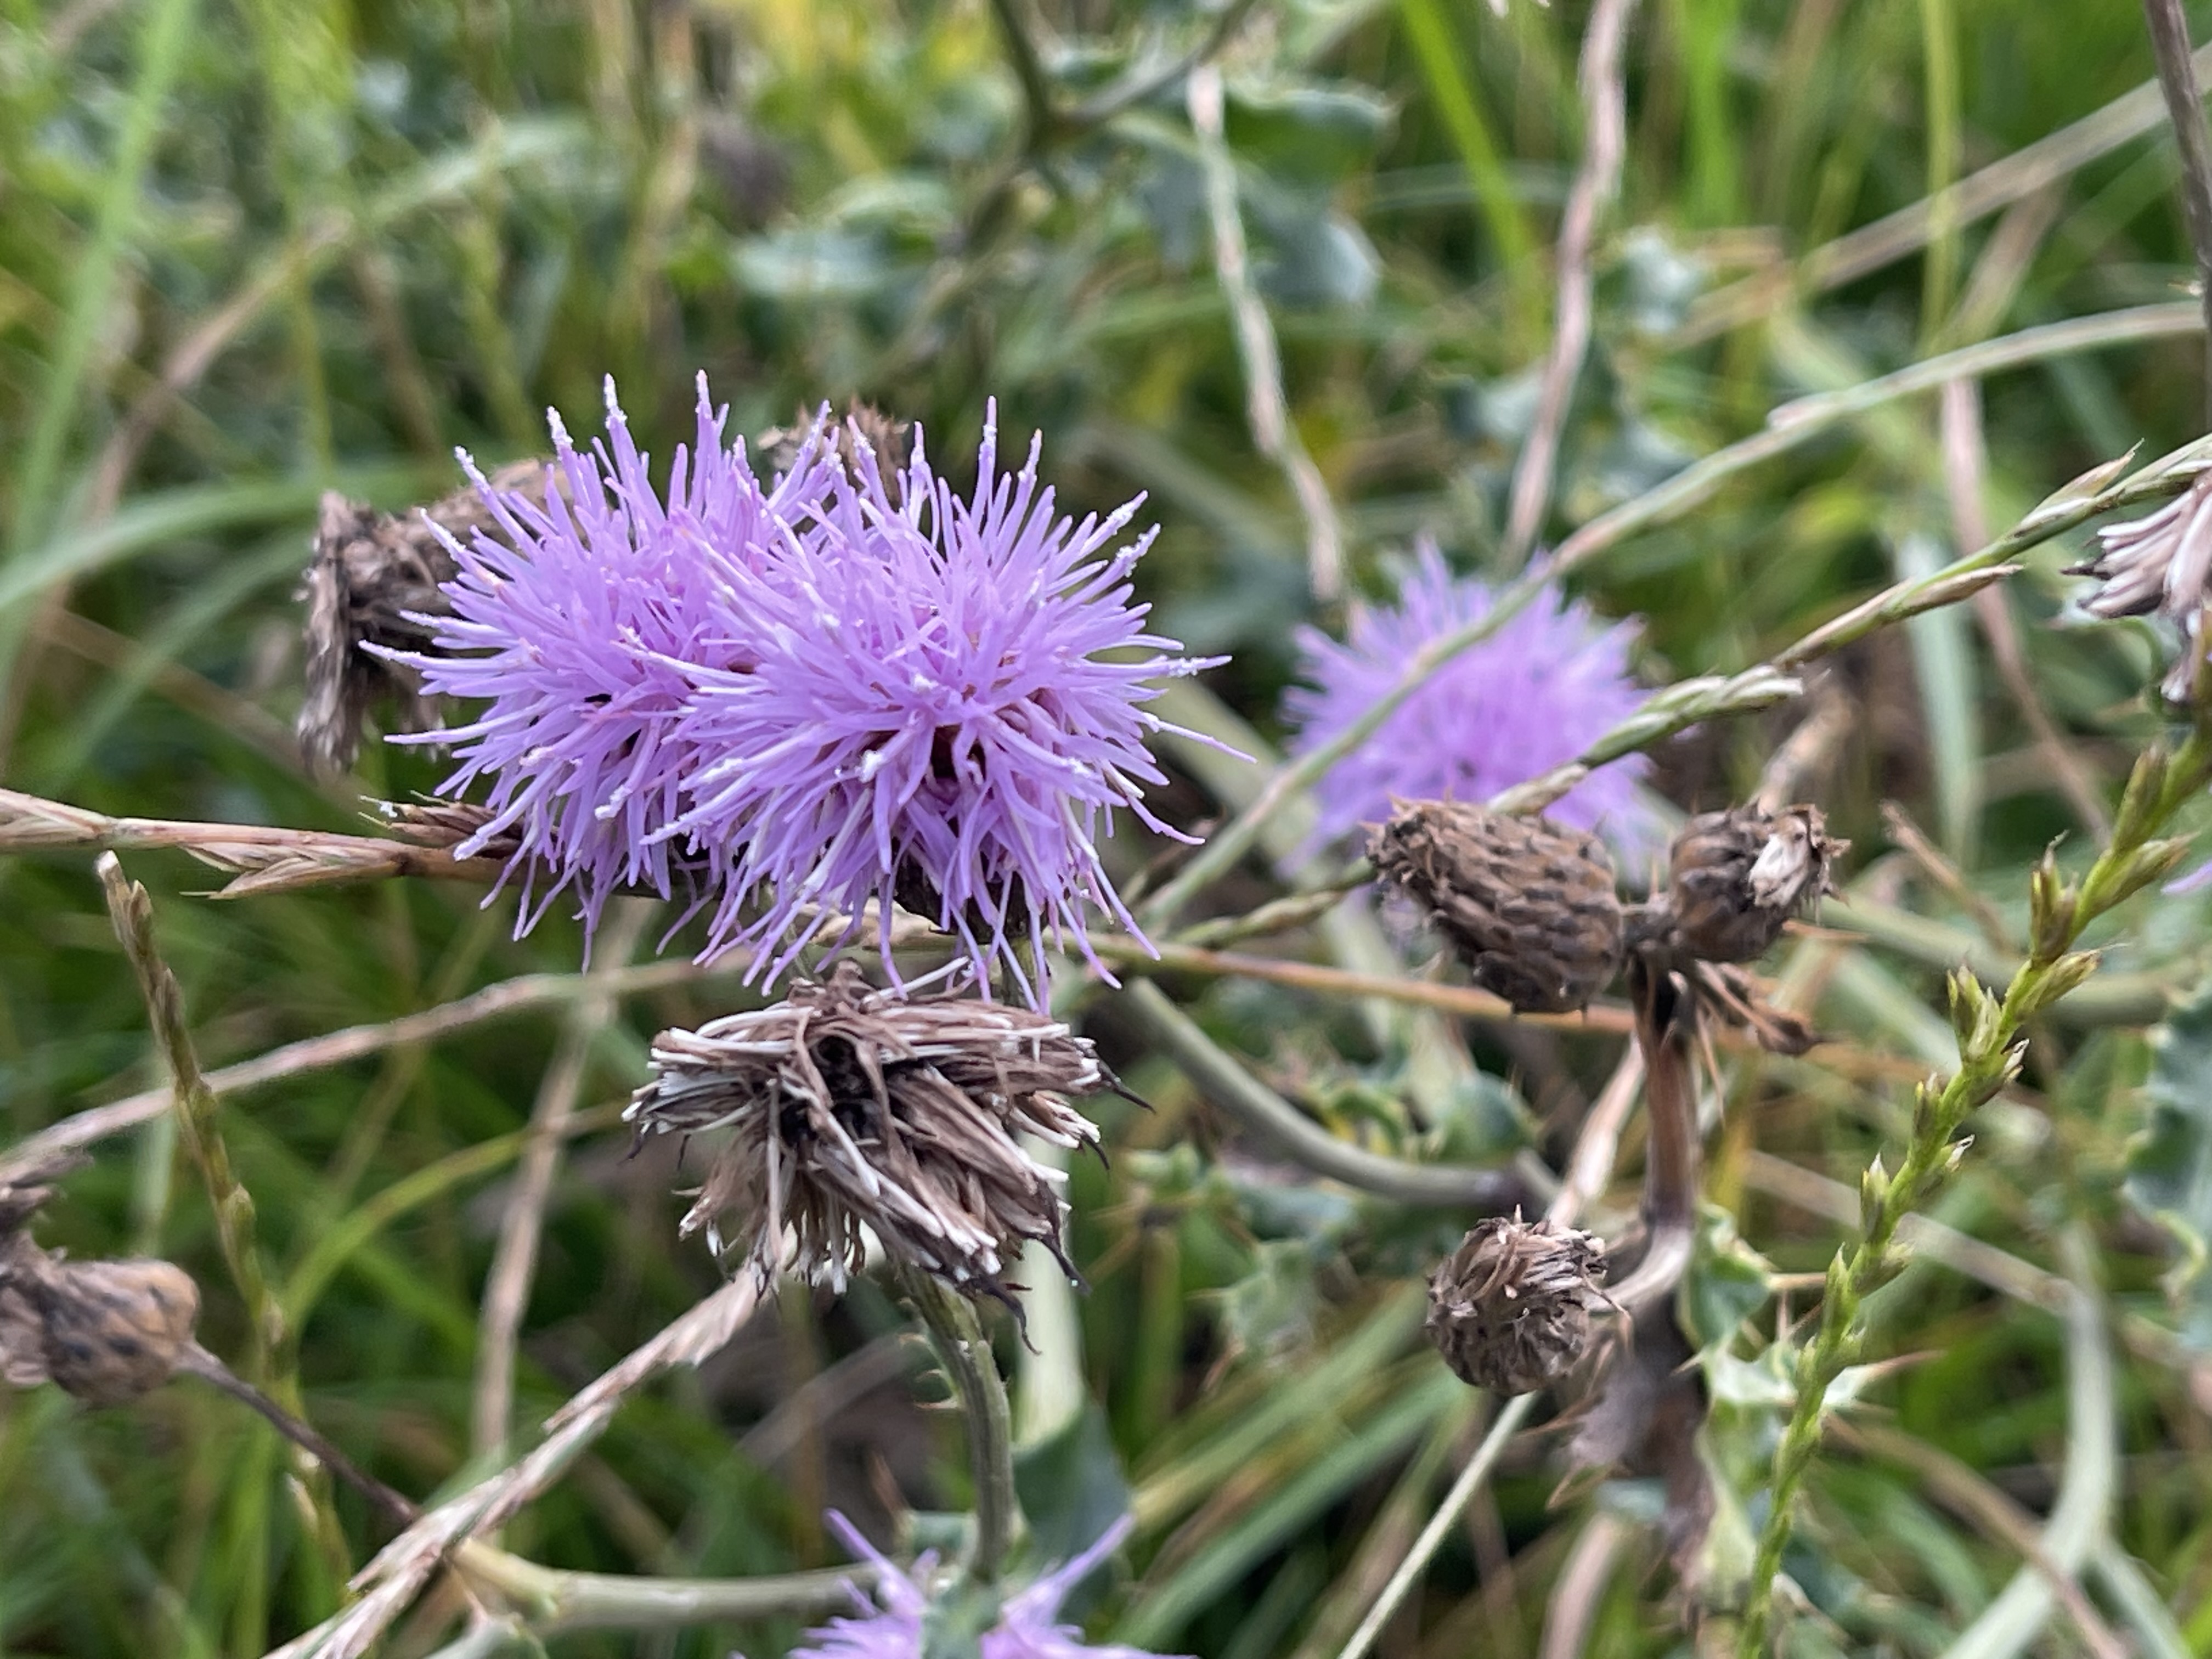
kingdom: Plantae
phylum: Tracheophyta
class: Magnoliopsida
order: Asterales
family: Asteraceae
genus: Cirsium
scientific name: Cirsium arvense
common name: Ager-tidsel
